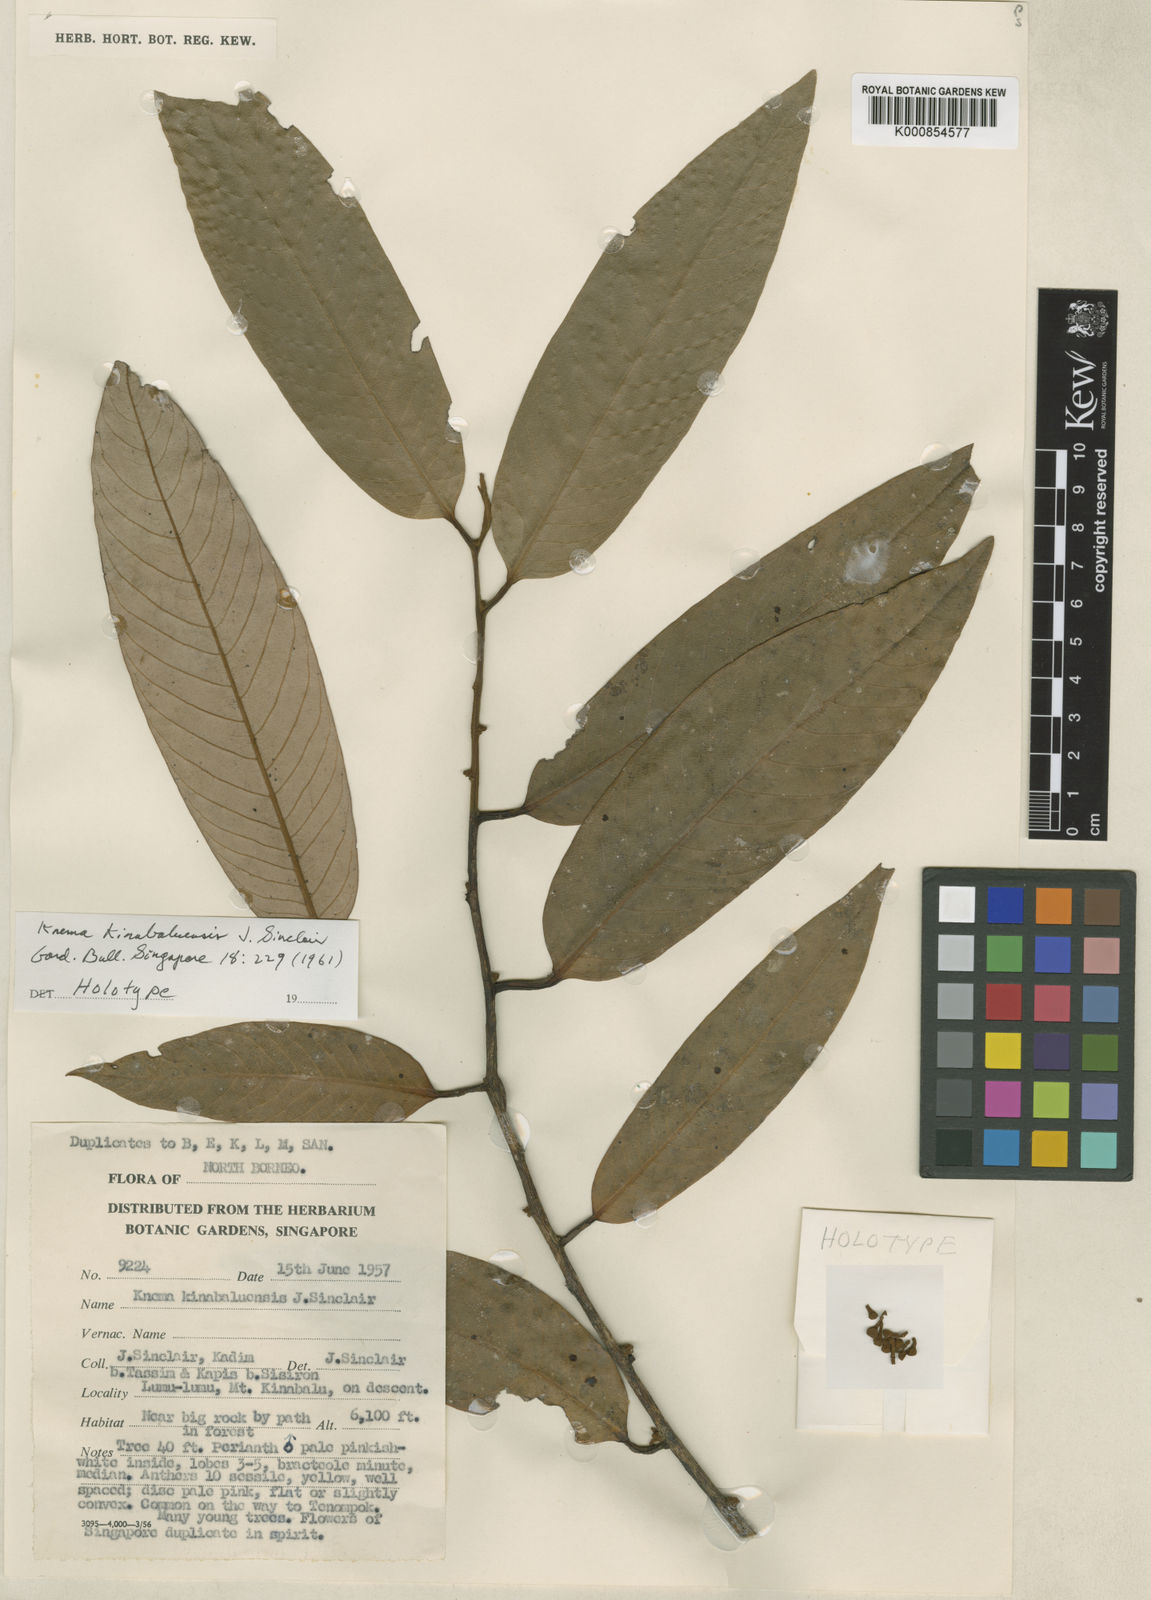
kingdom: Plantae
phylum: Tracheophyta
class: Magnoliopsida
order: Magnoliales
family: Myristicaceae
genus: Knema
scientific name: Knema kinabaluensis
